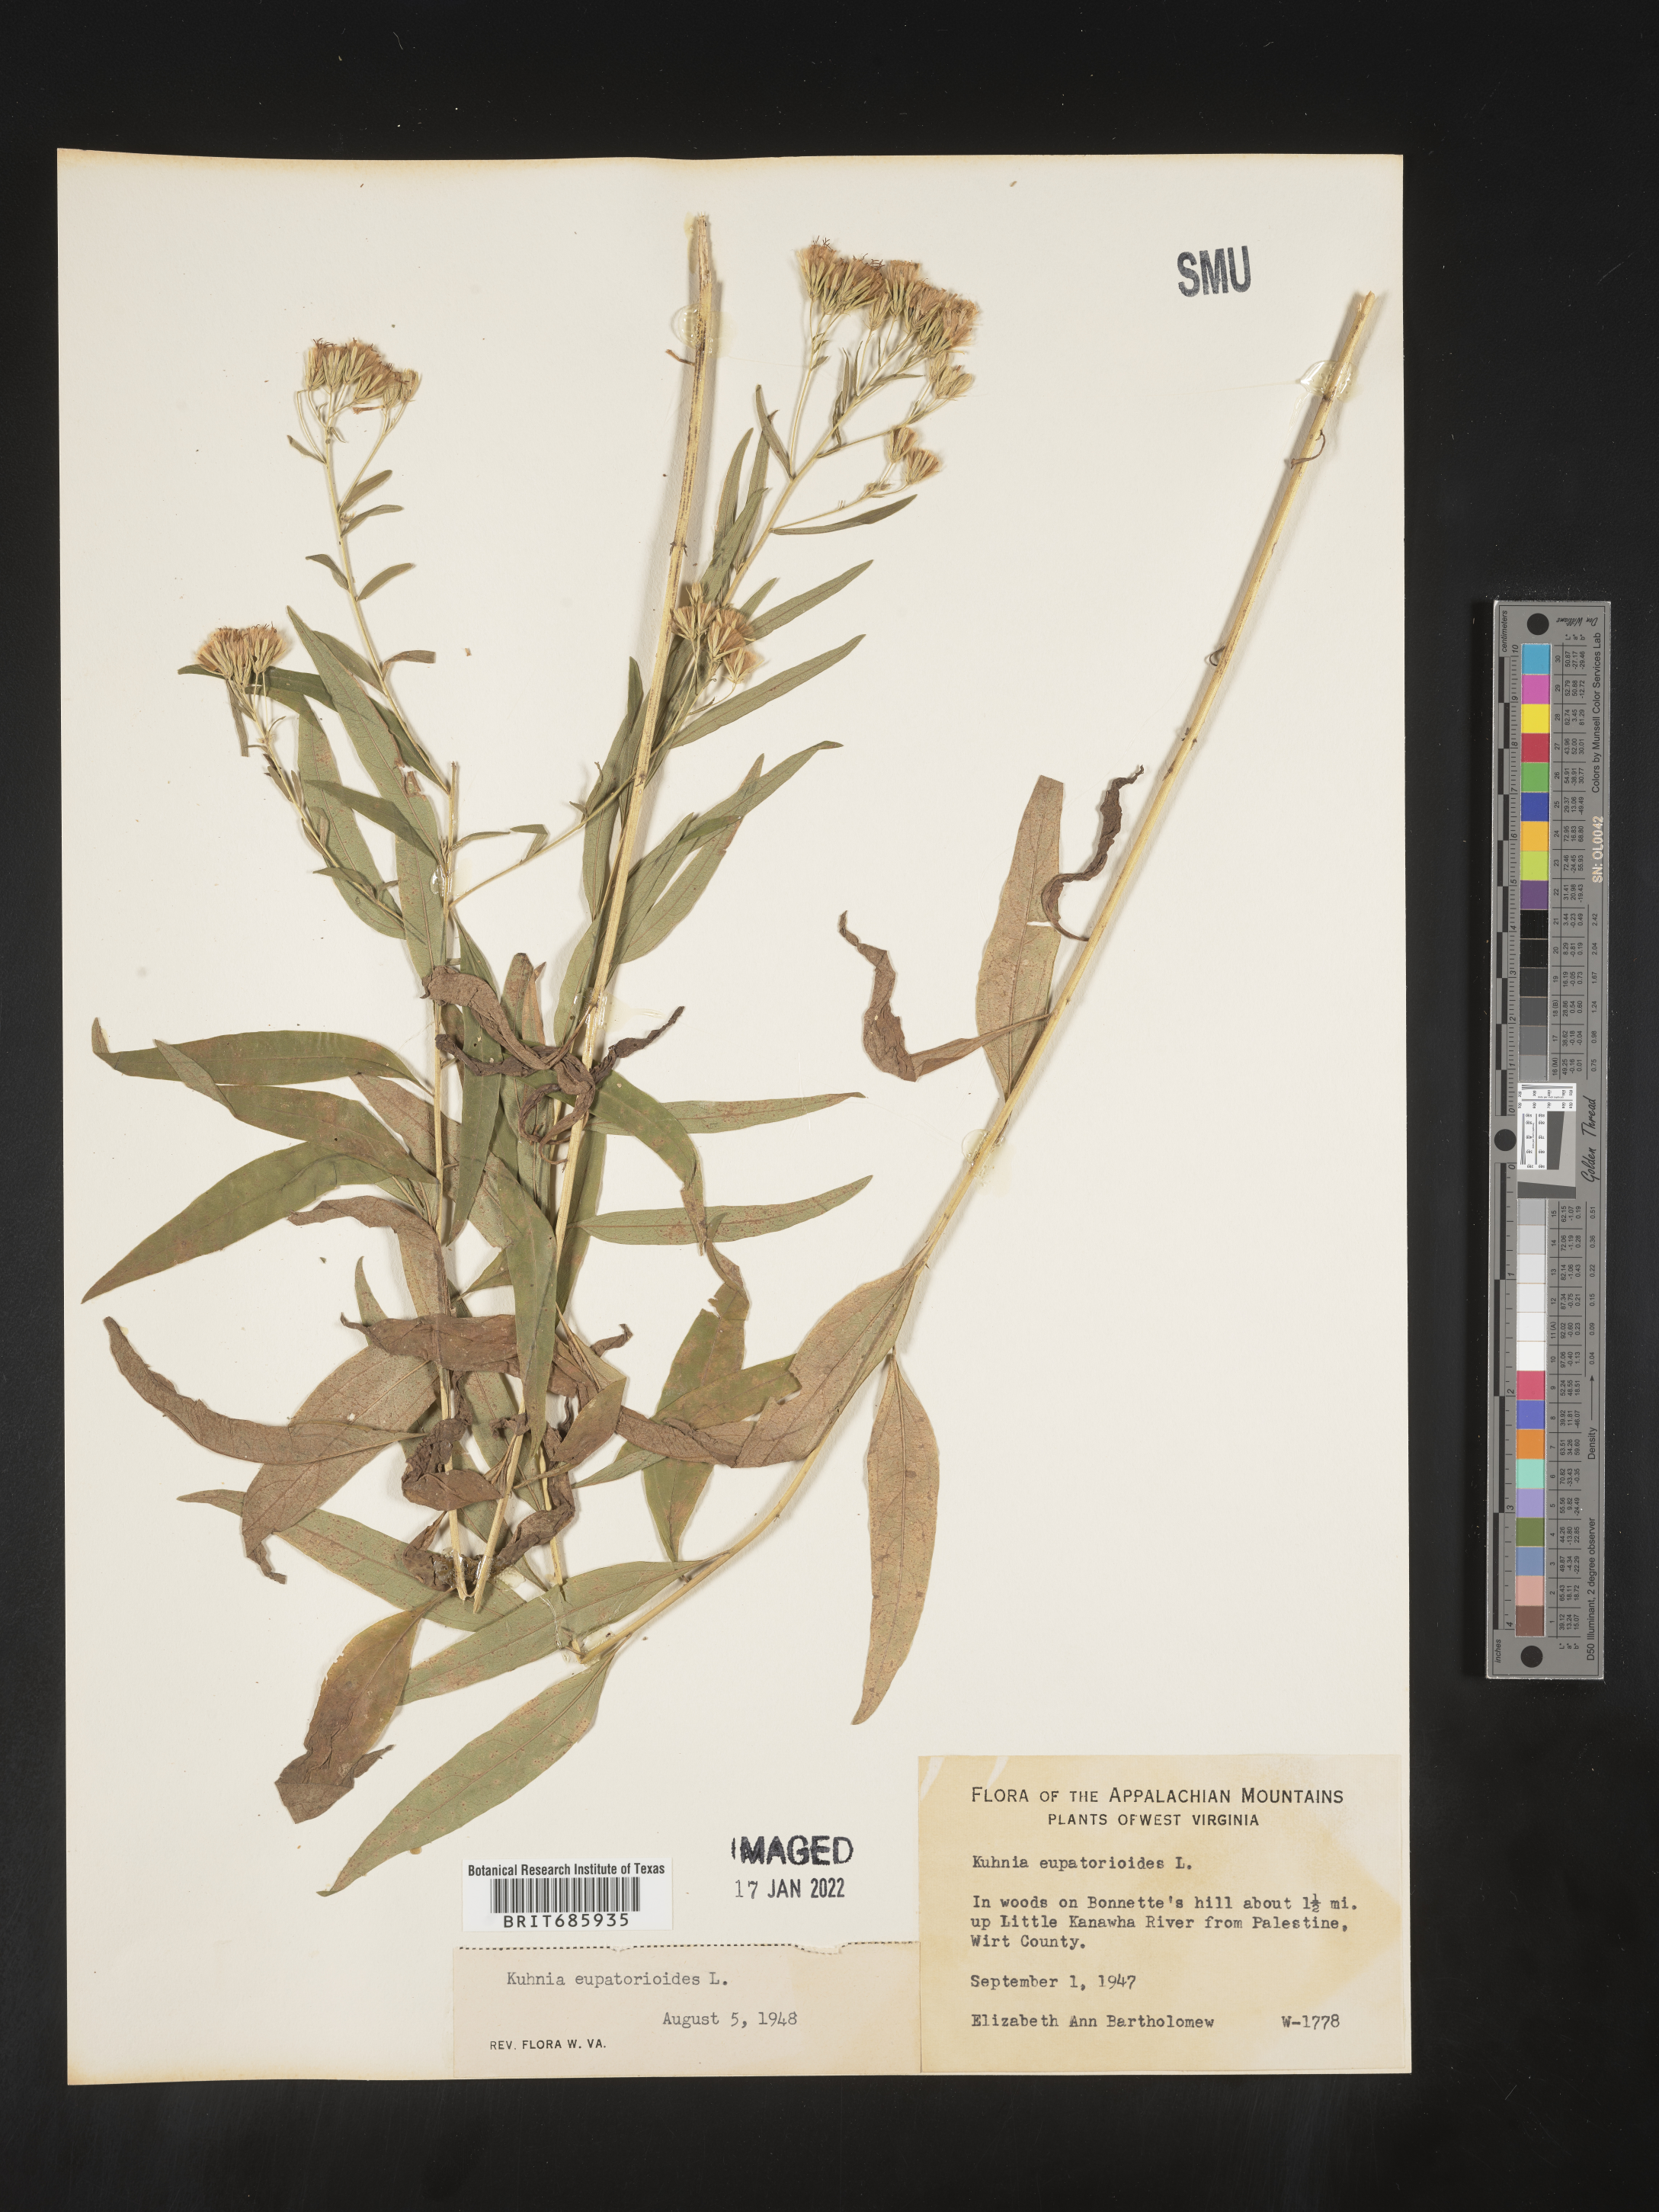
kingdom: Plantae
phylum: Tracheophyta
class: Magnoliopsida
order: Asterales
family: Asteraceae
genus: Brickellia
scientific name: Brickellia eupatorioides
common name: False boneset
